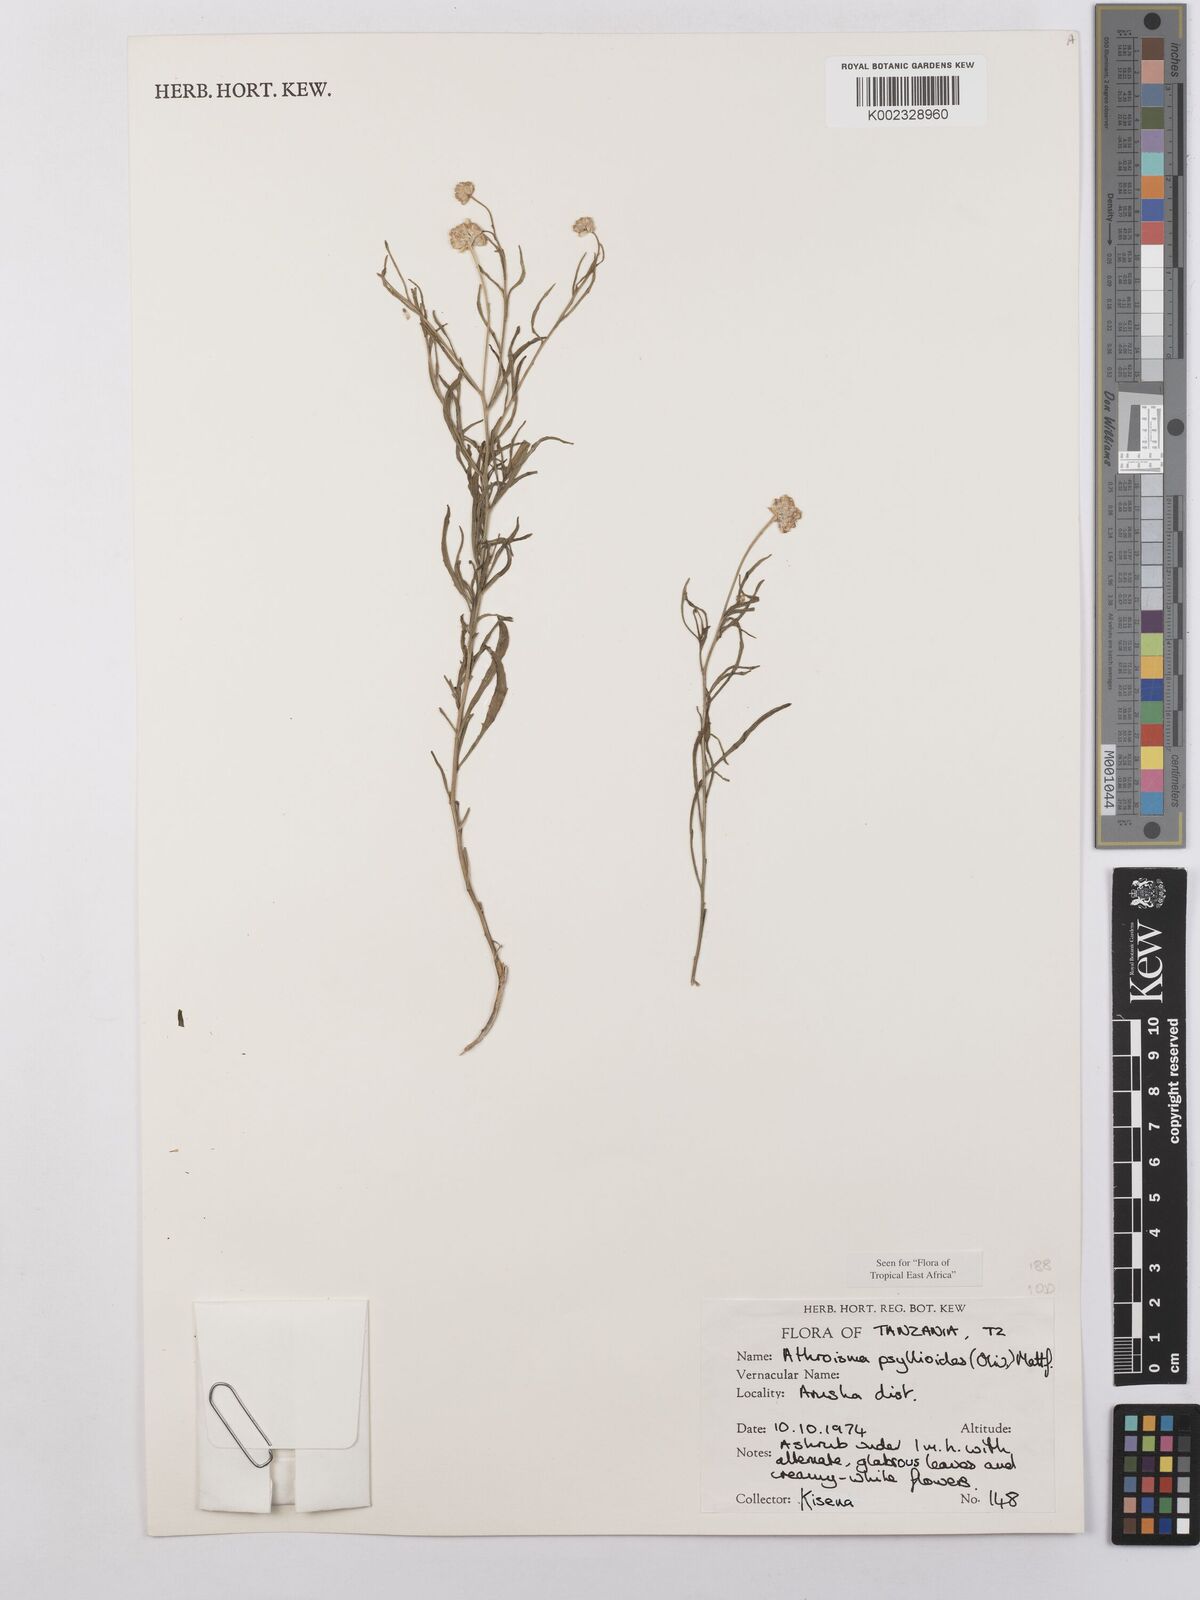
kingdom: Plantae
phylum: Tracheophyta
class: Magnoliopsida
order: Asterales
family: Asteraceae
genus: Athroisma
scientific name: Athroisma gracile
